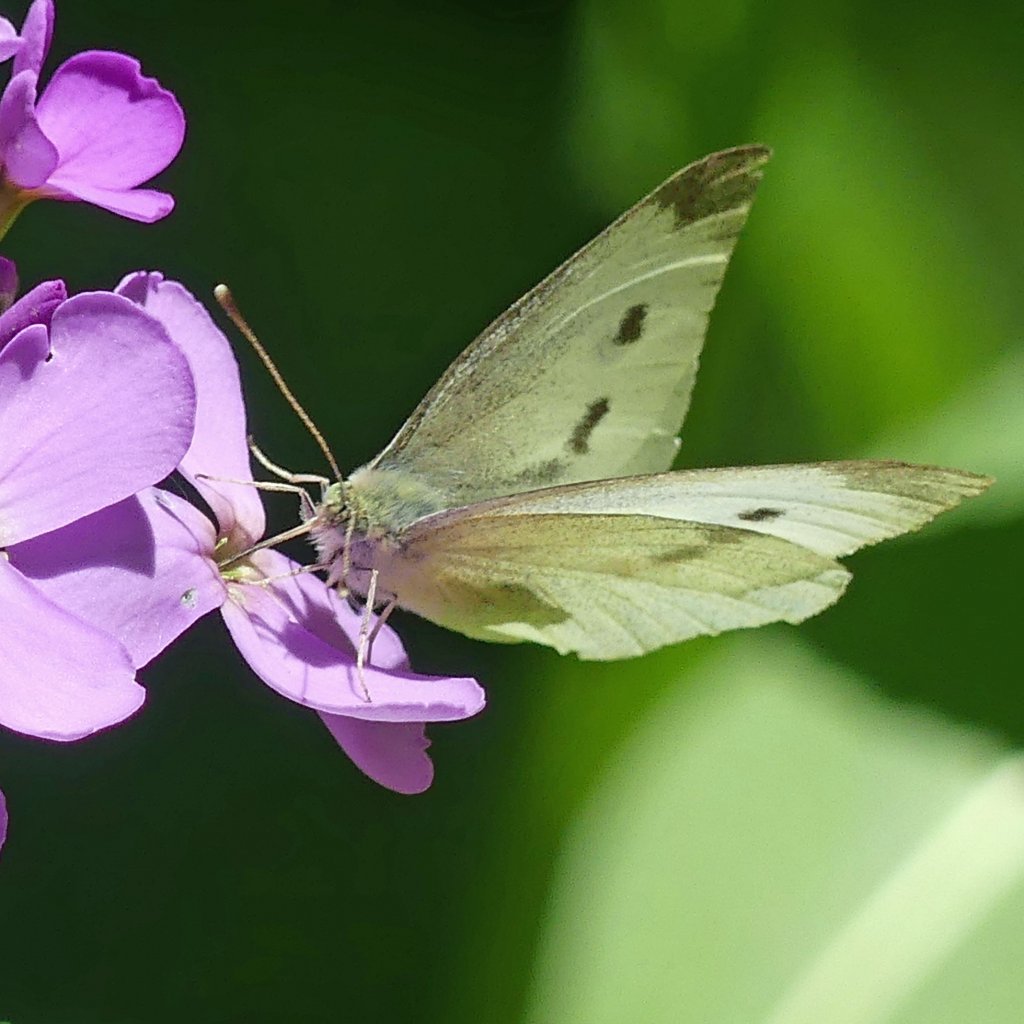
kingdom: Animalia
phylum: Arthropoda
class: Insecta
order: Lepidoptera
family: Pieridae
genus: Pieris
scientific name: Pieris rapae
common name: Cabbage White
